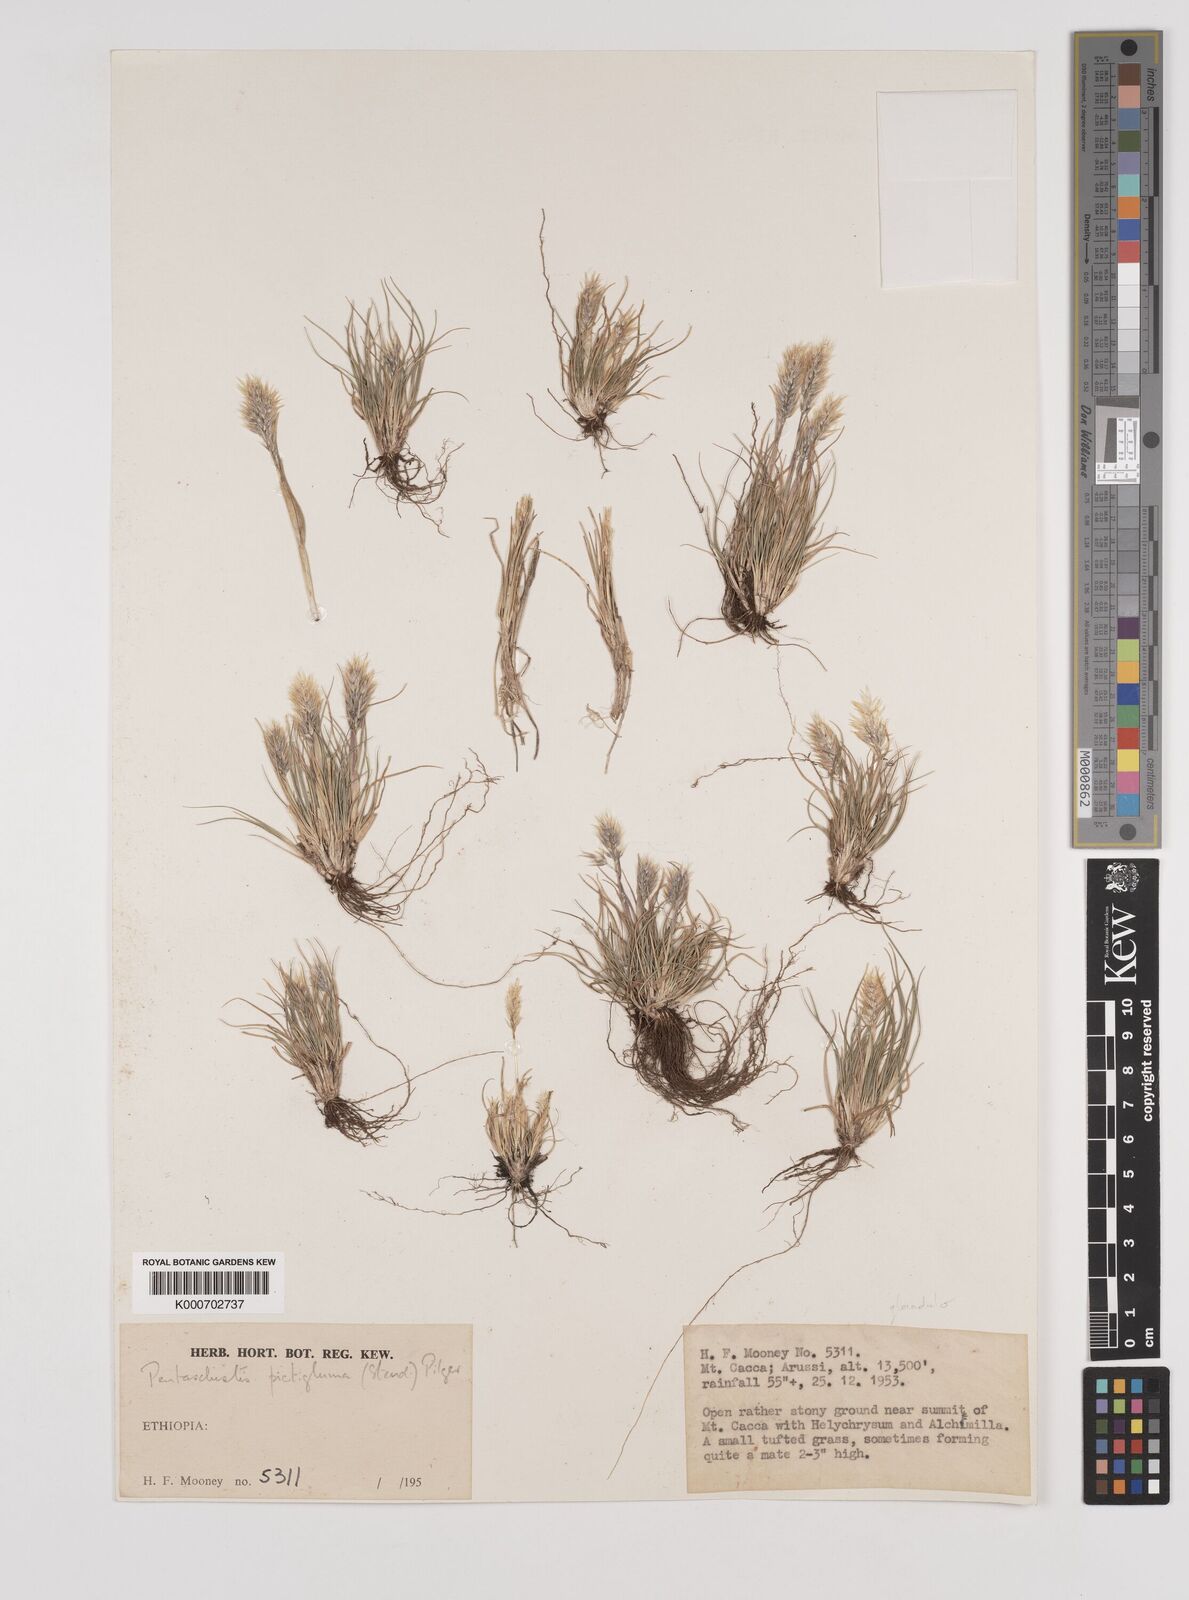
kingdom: Plantae
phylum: Tracheophyta
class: Liliopsida
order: Poales
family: Poaceae
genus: Pentameris
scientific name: Pentameris pictigluma
